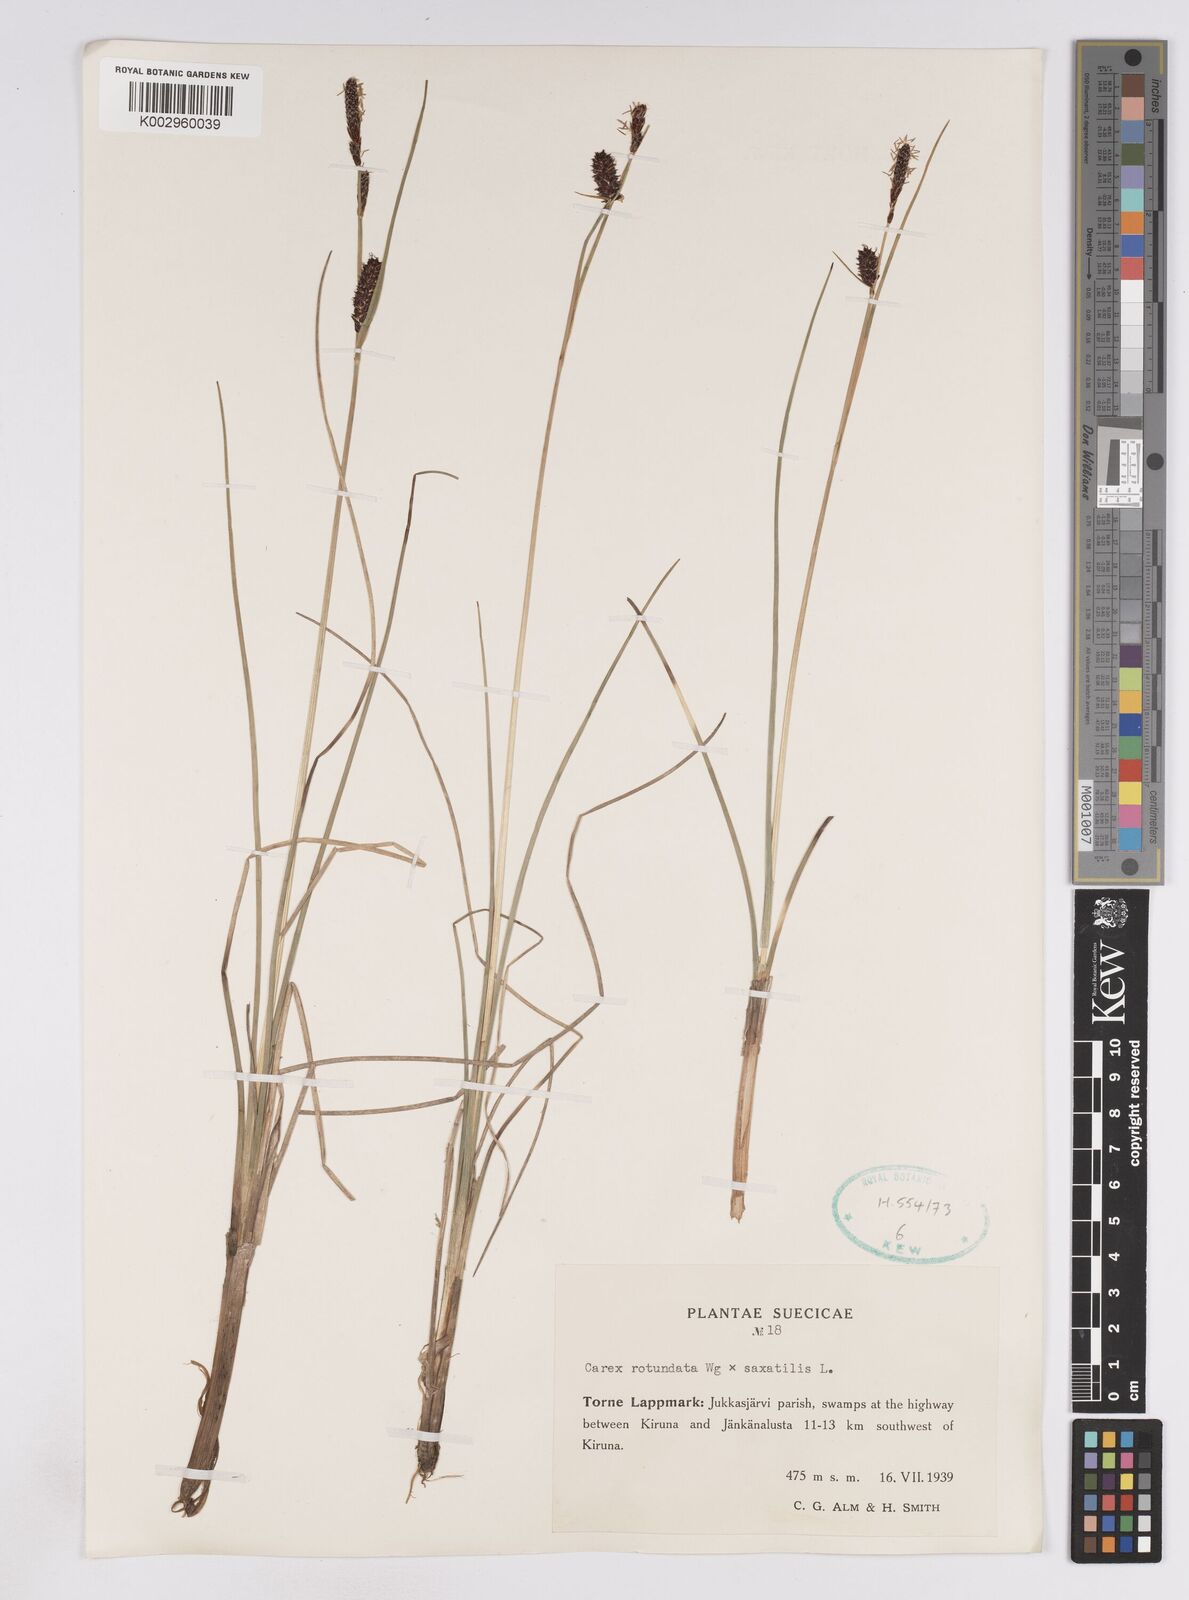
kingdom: Plantae
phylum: Tracheophyta
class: Liliopsida
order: Poales
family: Cyperaceae
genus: Carex
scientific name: Carex
